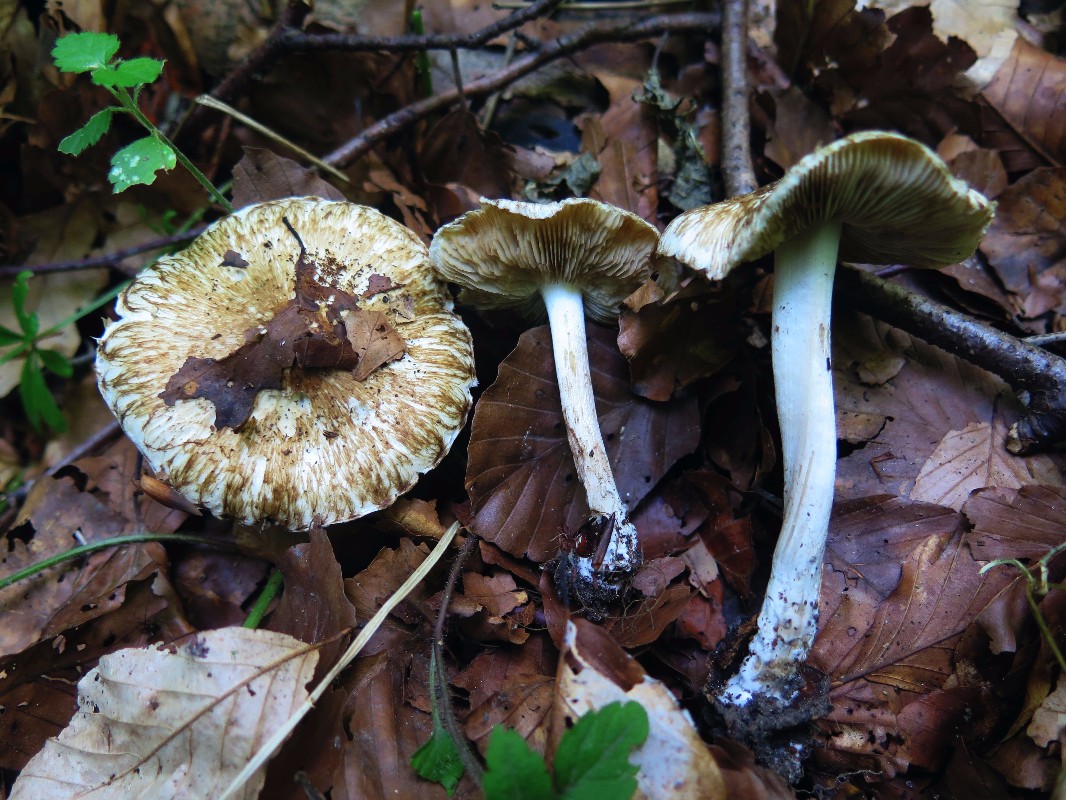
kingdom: Fungi
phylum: Basidiomycota
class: Agaricomycetes
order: Agaricales
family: Inocybaceae
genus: Inocybe
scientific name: Inocybe erinaceomorpha
